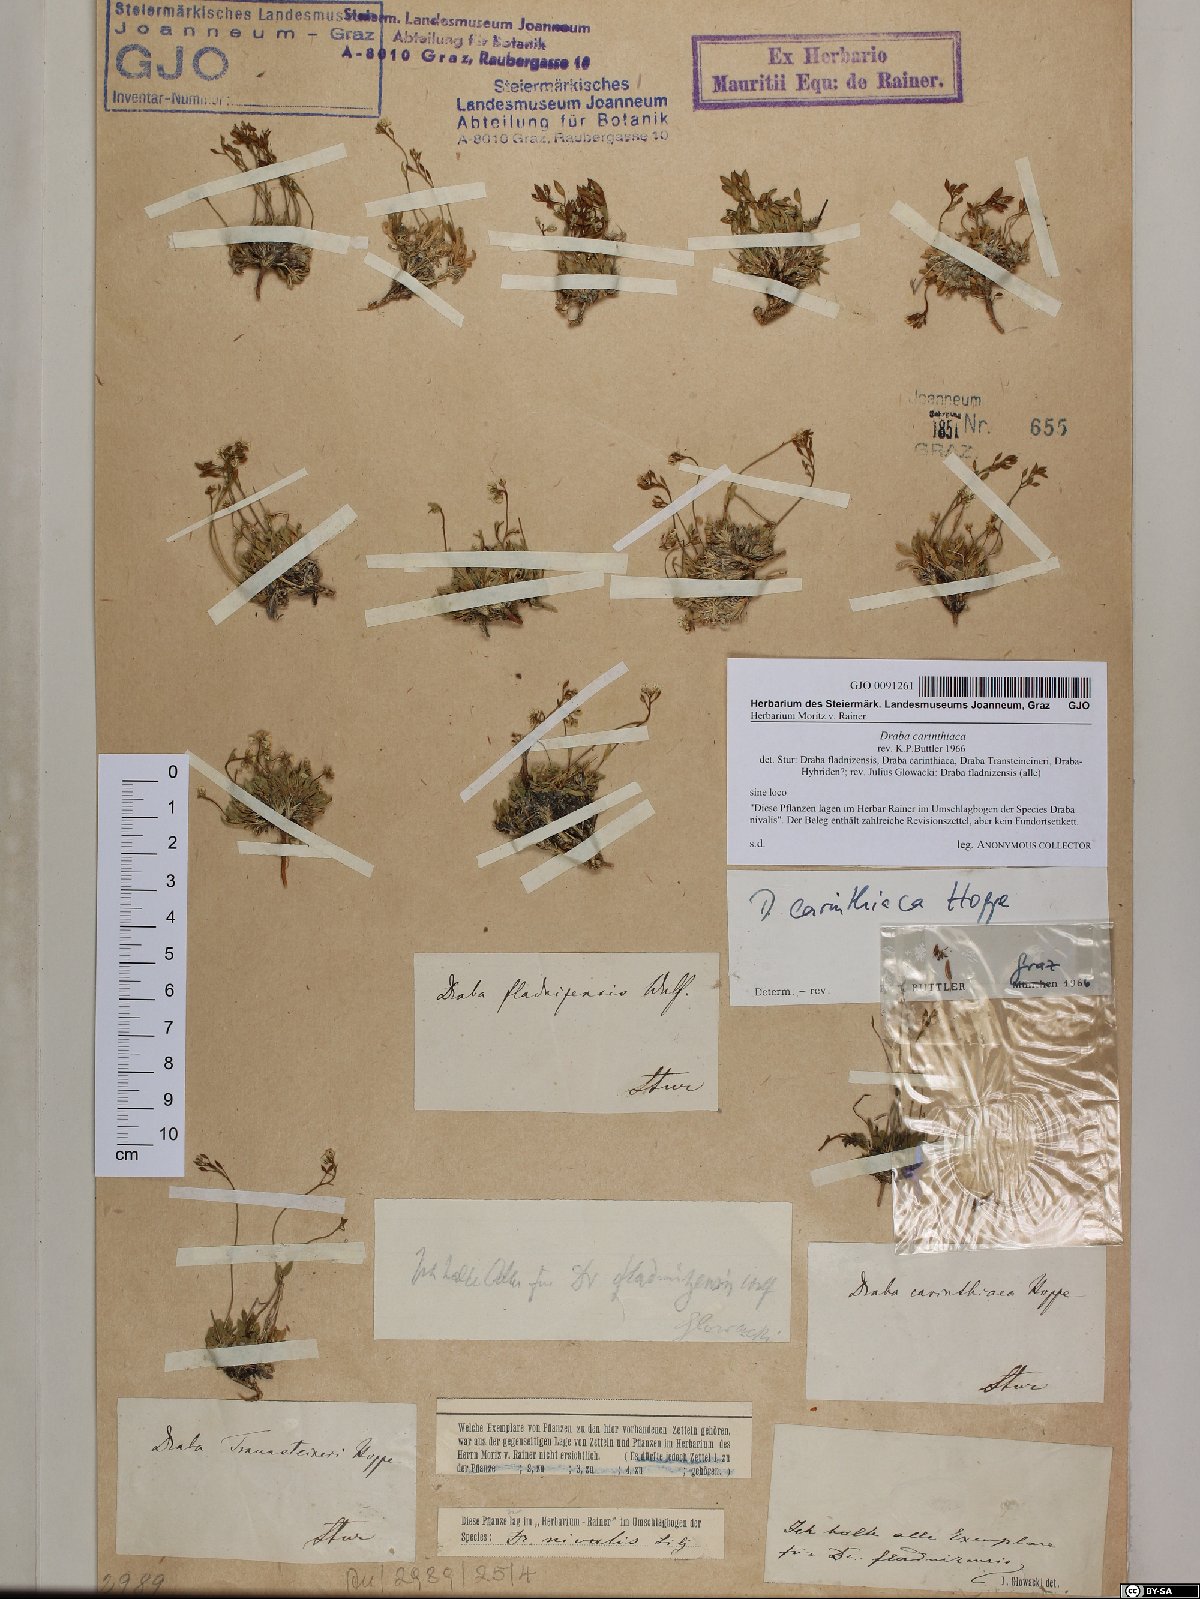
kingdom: Plantae
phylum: Tracheophyta
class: Magnoliopsida
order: Brassicales
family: Brassicaceae
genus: Draba
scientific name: Draba siliquosa
